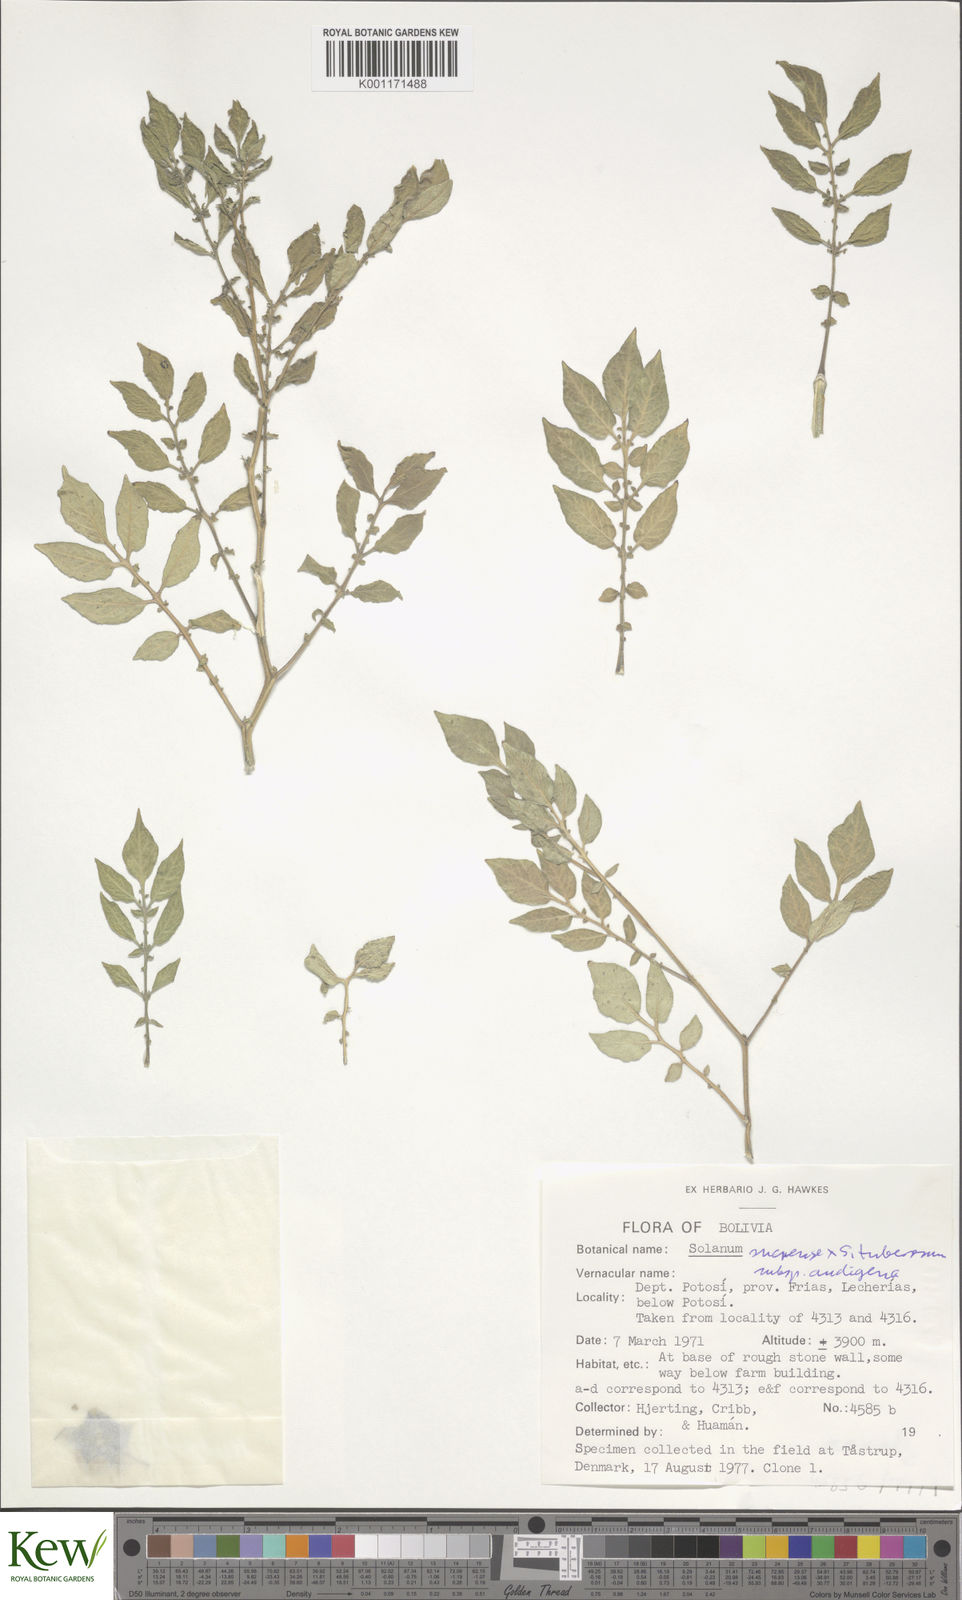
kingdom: Plantae
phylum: Tracheophyta
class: Magnoliopsida
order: Solanales
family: Solanaceae
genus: Solanum
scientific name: Solanum tuberosum
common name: Potato
